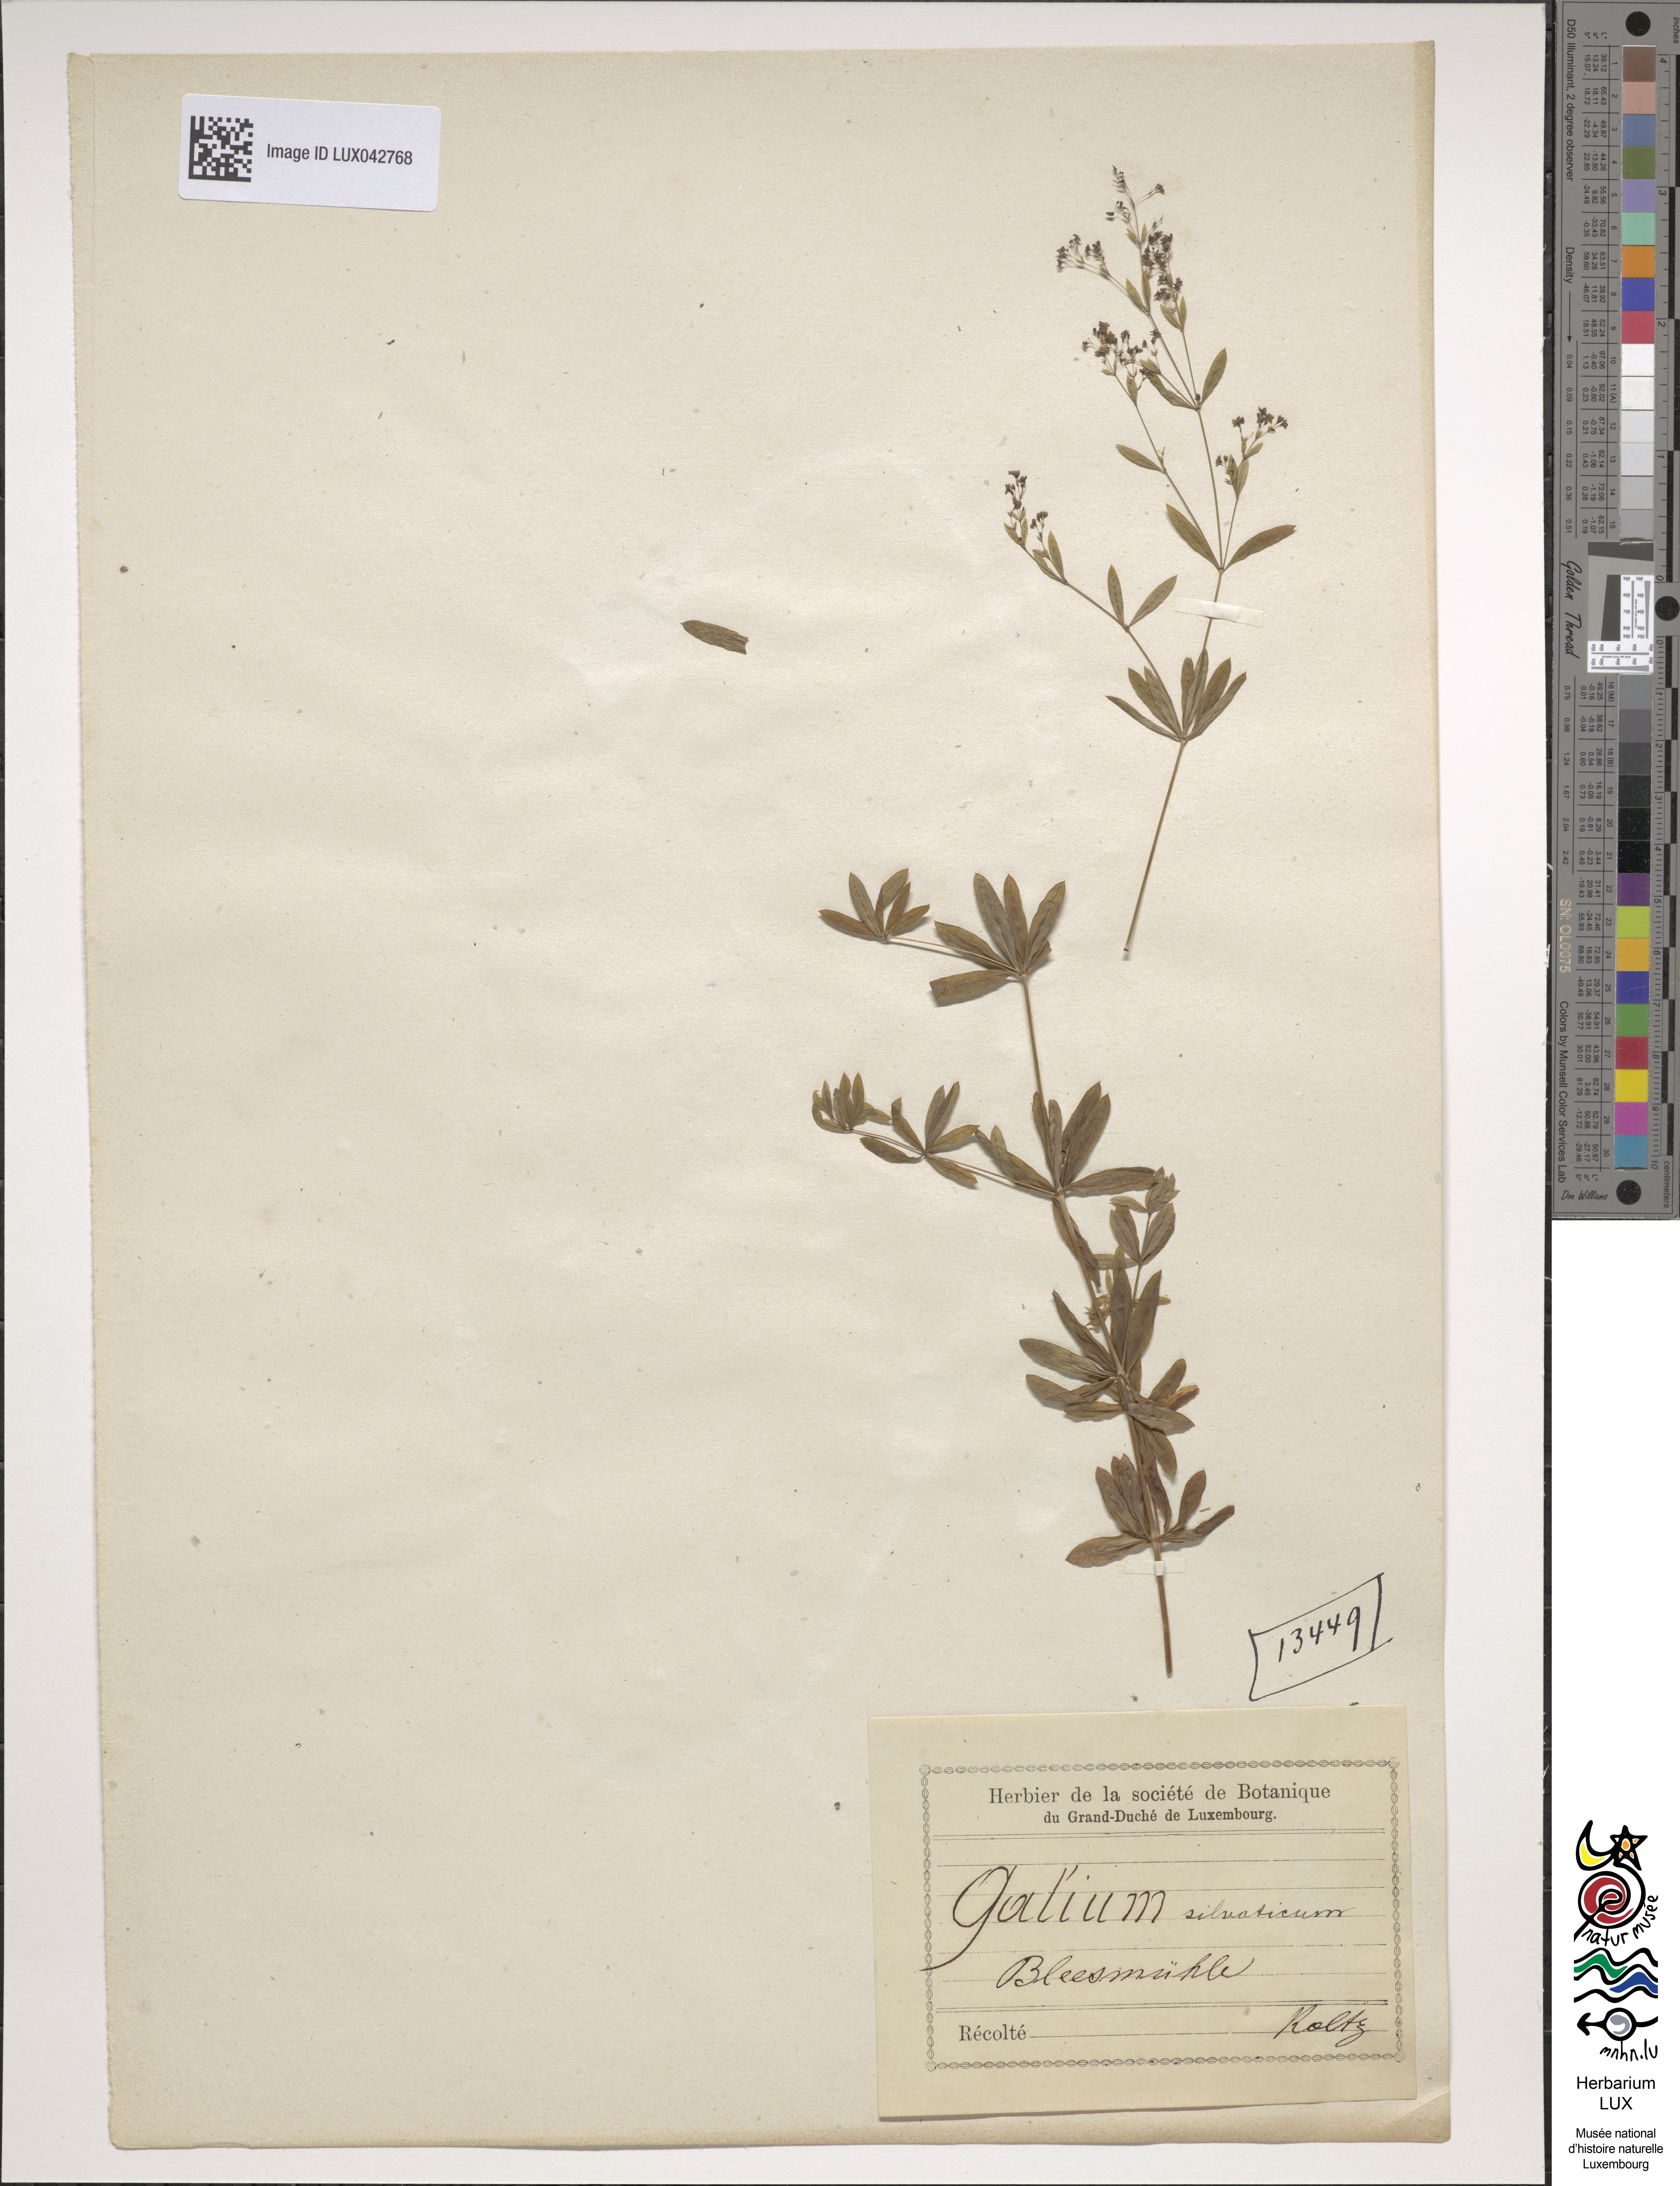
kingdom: Plantae
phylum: Tracheophyta
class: Magnoliopsida
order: Gentianales
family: Rubiaceae
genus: Galium
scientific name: Galium sylvaticum
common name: Wood bedstraw
